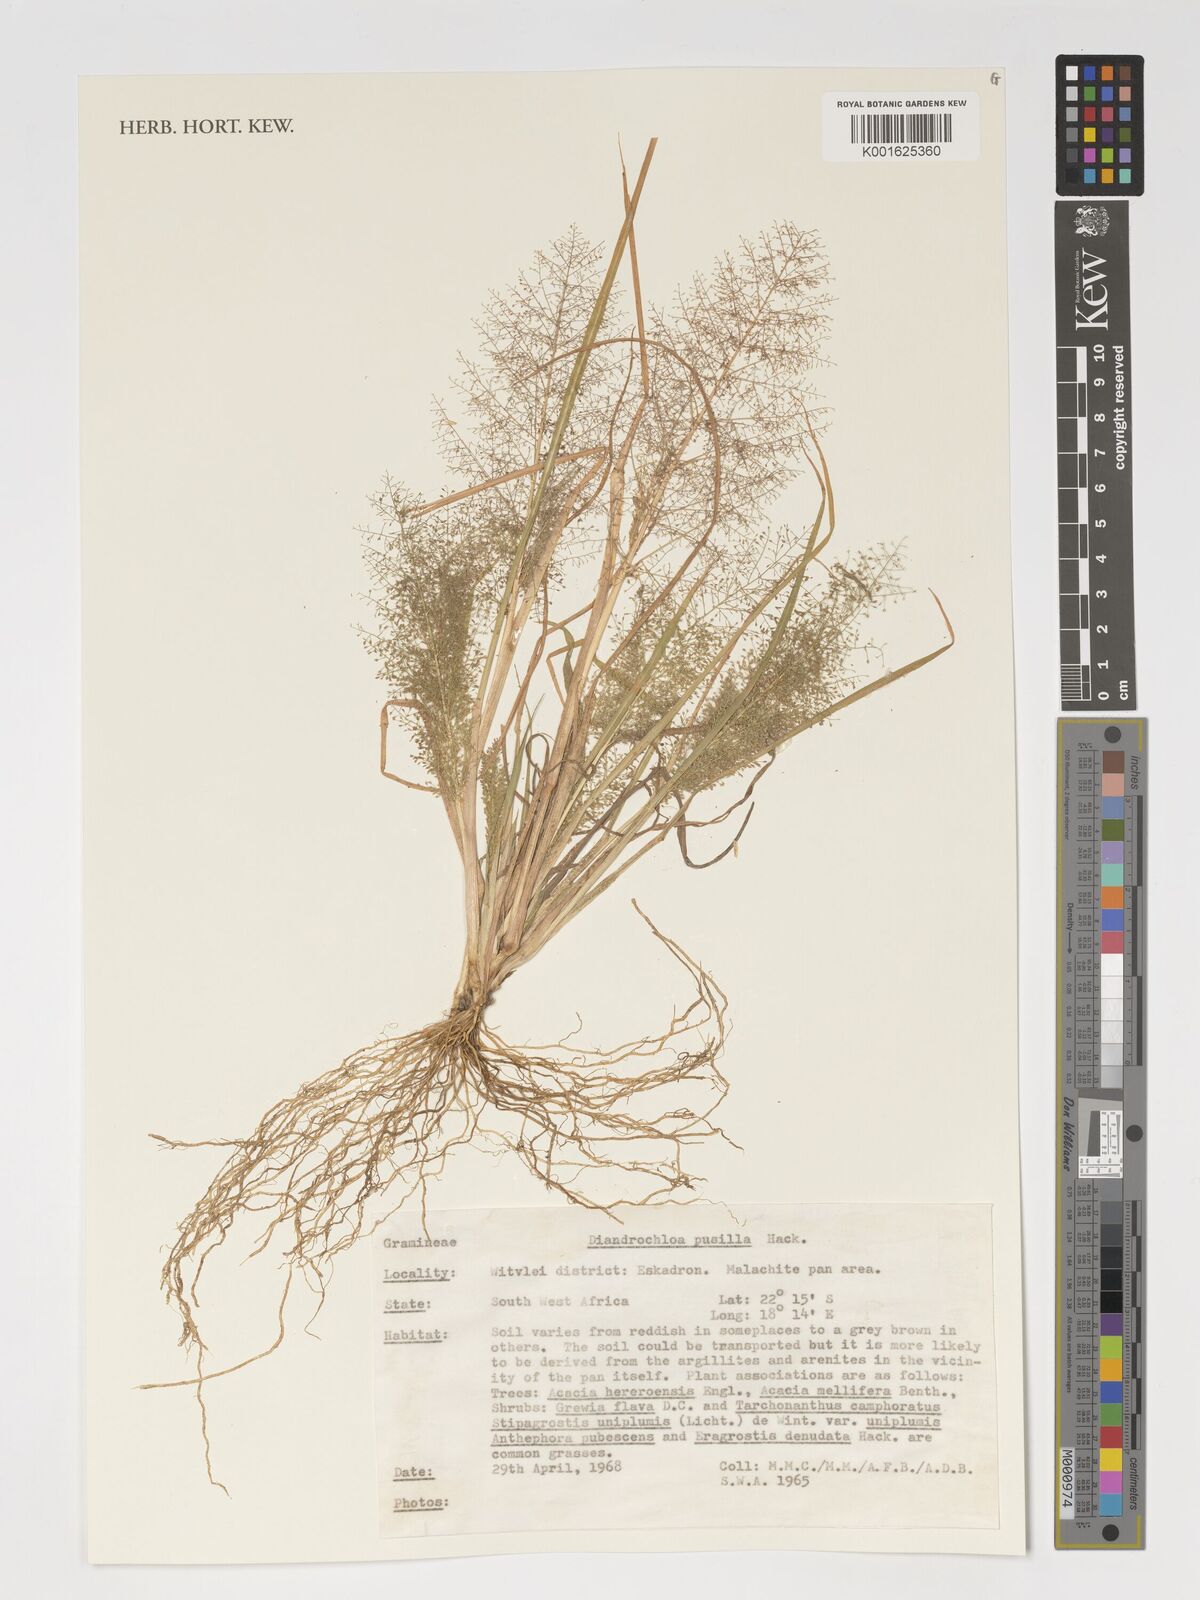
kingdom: Plantae
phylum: Tracheophyta
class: Liliopsida
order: Poales
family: Poaceae
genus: Eragrostis
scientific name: Eragrostis pusilla
